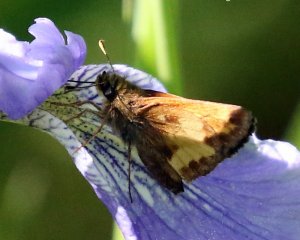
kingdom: Animalia
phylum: Arthropoda
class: Insecta
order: Lepidoptera
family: Hesperiidae
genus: Lon
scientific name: Lon hobomok
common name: Hobomok Skipper
